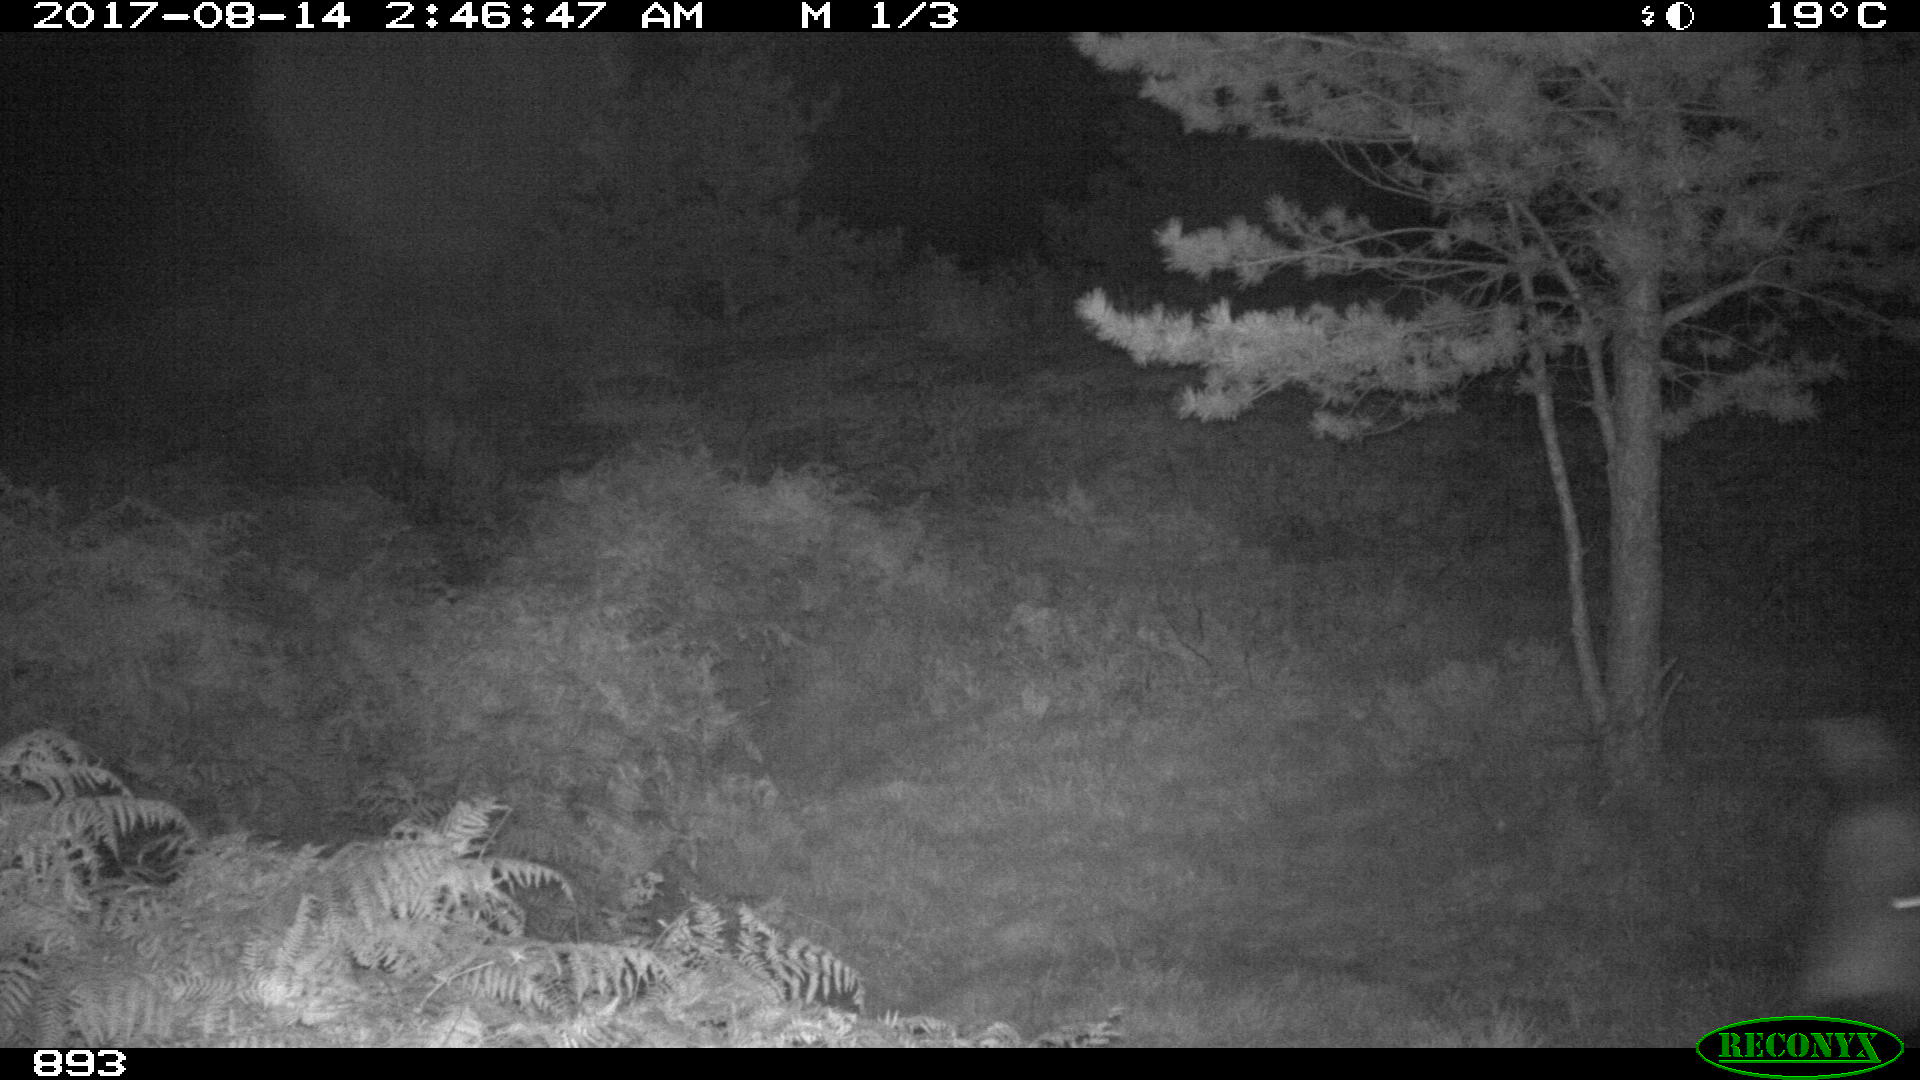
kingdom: Animalia
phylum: Chordata
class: Mammalia
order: Perissodactyla
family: Equidae
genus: Equus
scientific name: Equus caballus
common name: Horse
